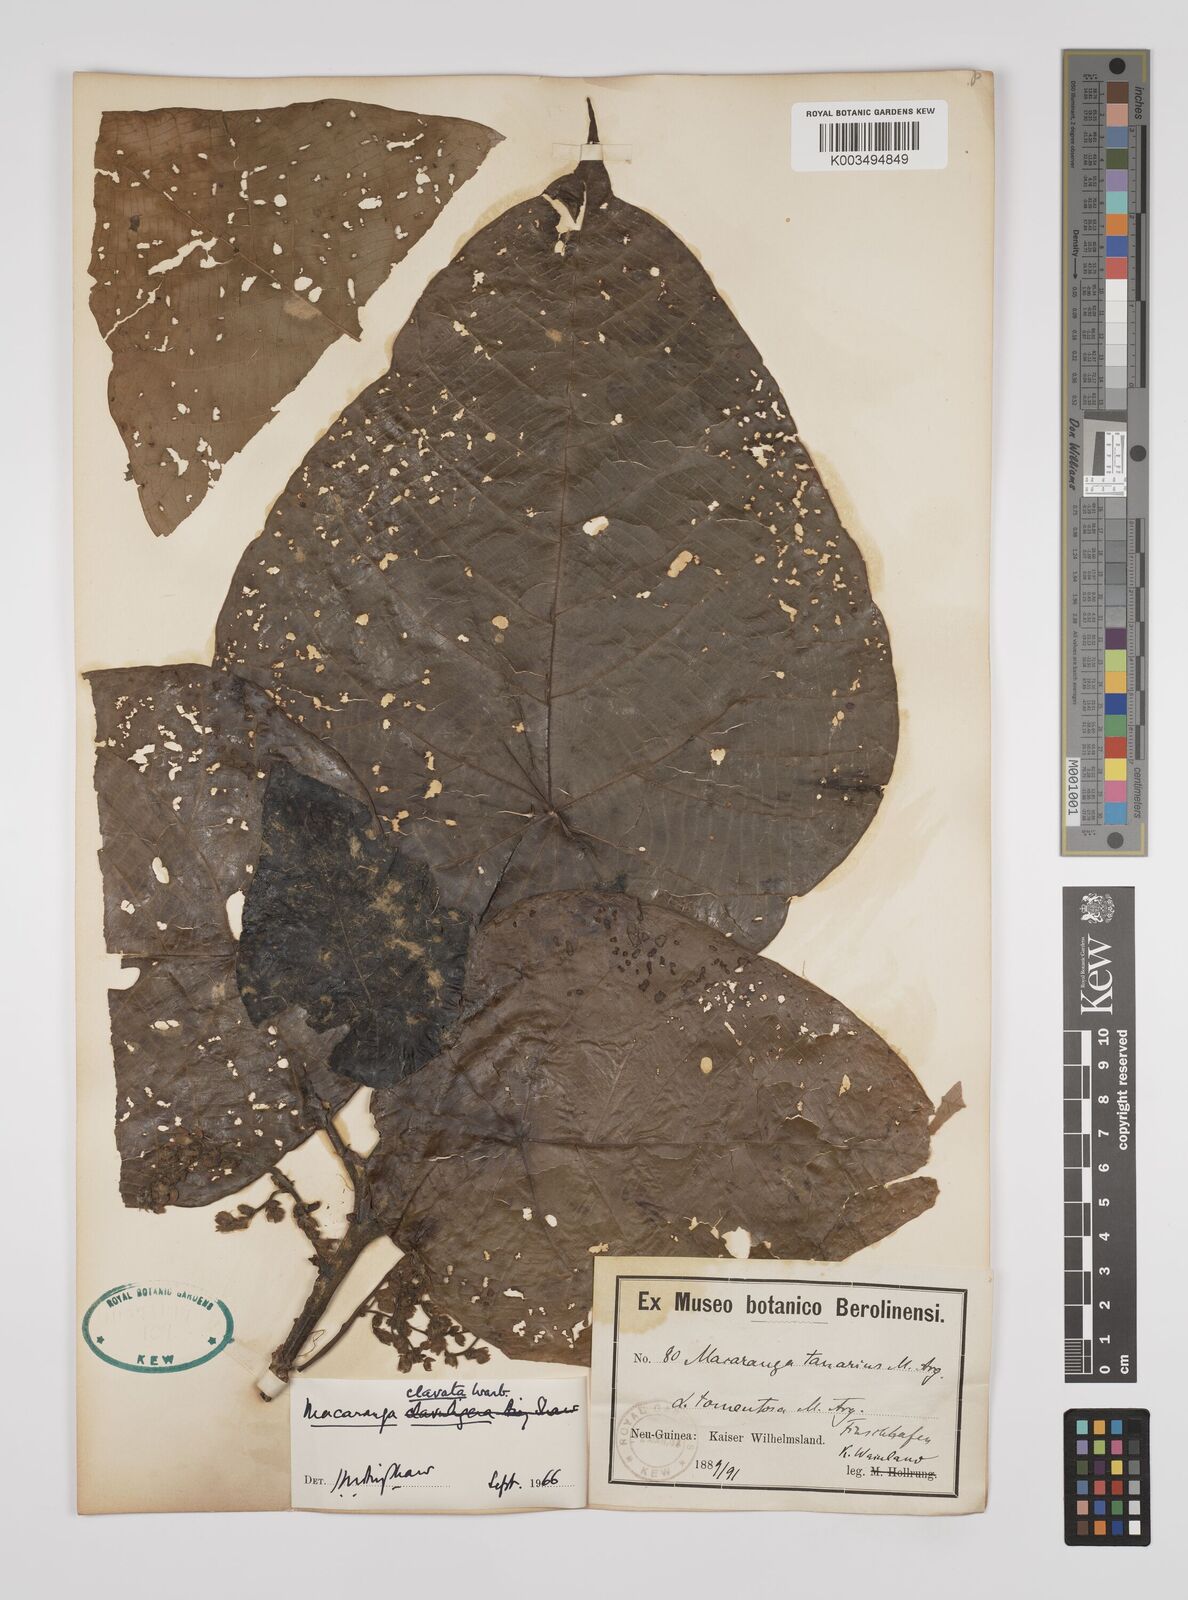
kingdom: Plantae
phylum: Tracheophyta
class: Magnoliopsida
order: Malpighiales
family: Euphorbiaceae
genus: Macaranga
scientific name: Macaranga clavata
